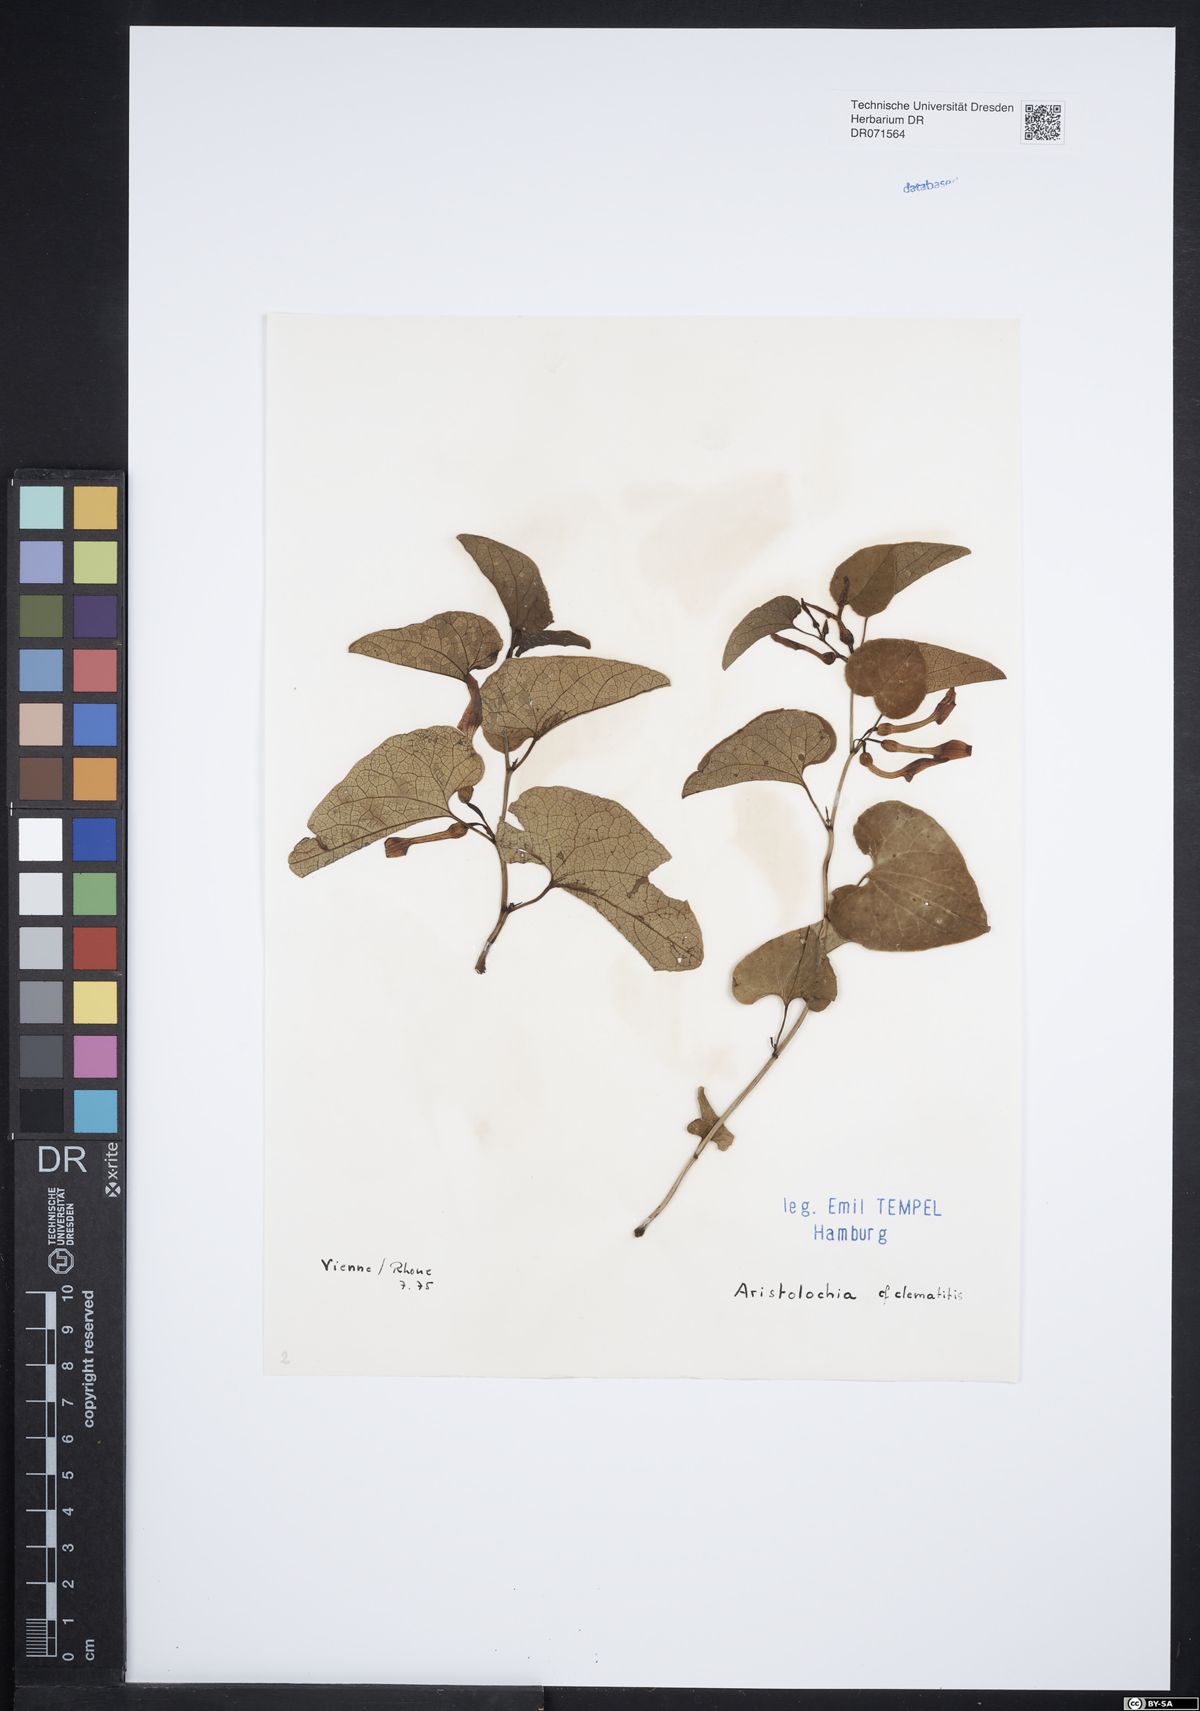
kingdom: Plantae
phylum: Tracheophyta
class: Magnoliopsida
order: Piperales
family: Aristolochiaceae
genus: Aristolochia
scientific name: Aristolochia clematitis
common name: Birthwort
